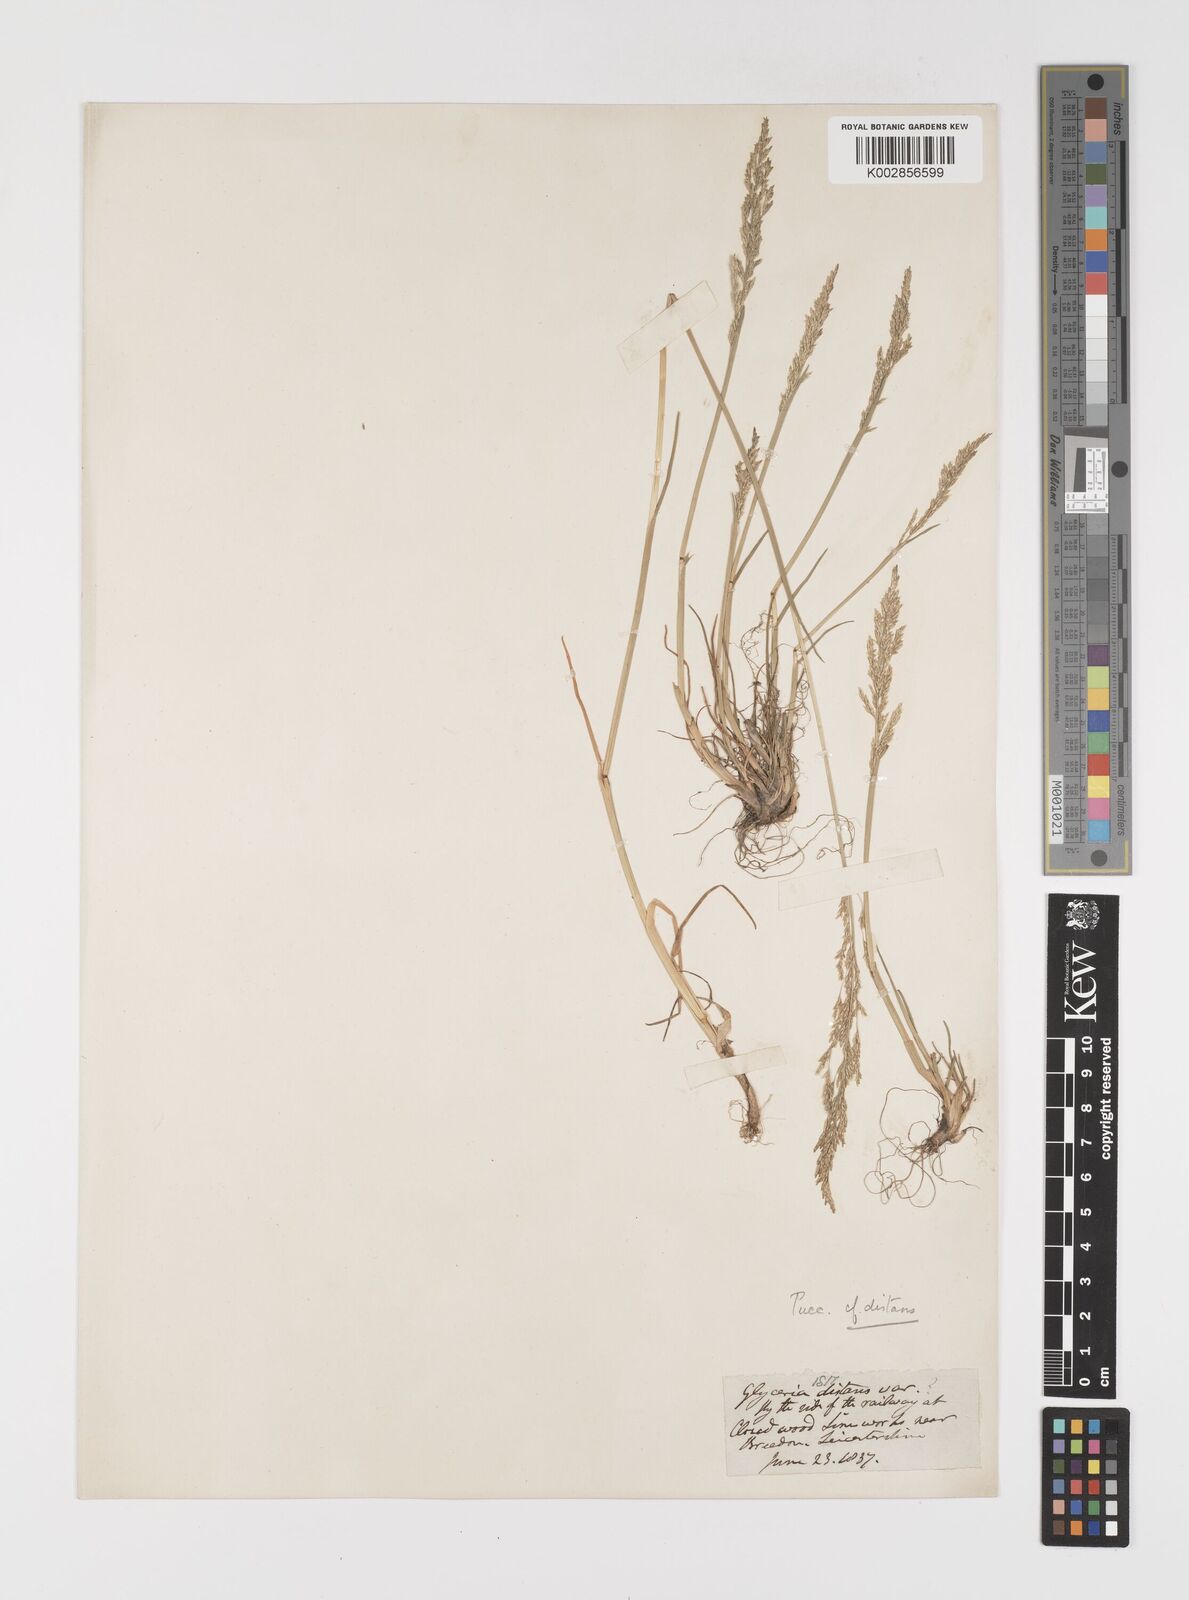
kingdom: Plantae
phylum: Tracheophyta
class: Liliopsida
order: Poales
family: Poaceae
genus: Puccinellia
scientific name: Puccinellia distans
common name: Weeping alkaligrass
